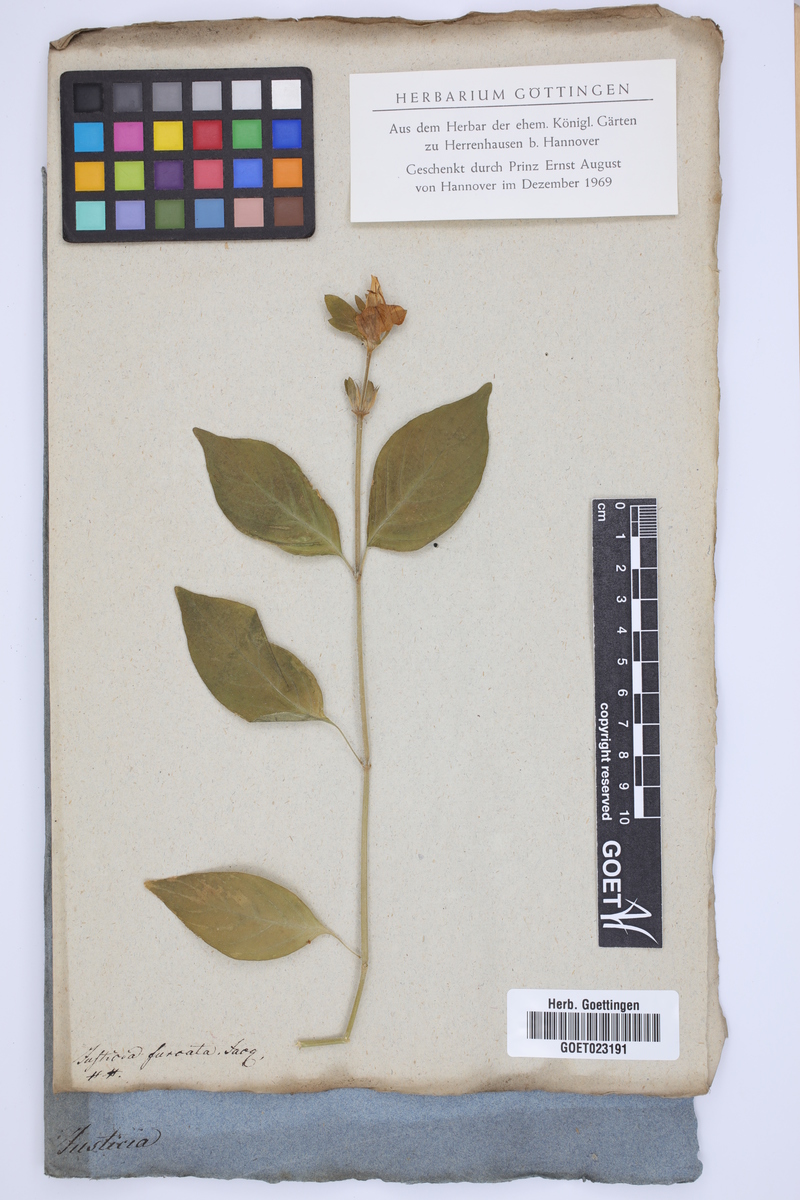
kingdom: Plantae
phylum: Tracheophyta
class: Magnoliopsida
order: Lamiales
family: Acanthaceae
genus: Justicia
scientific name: Justicia furcata
